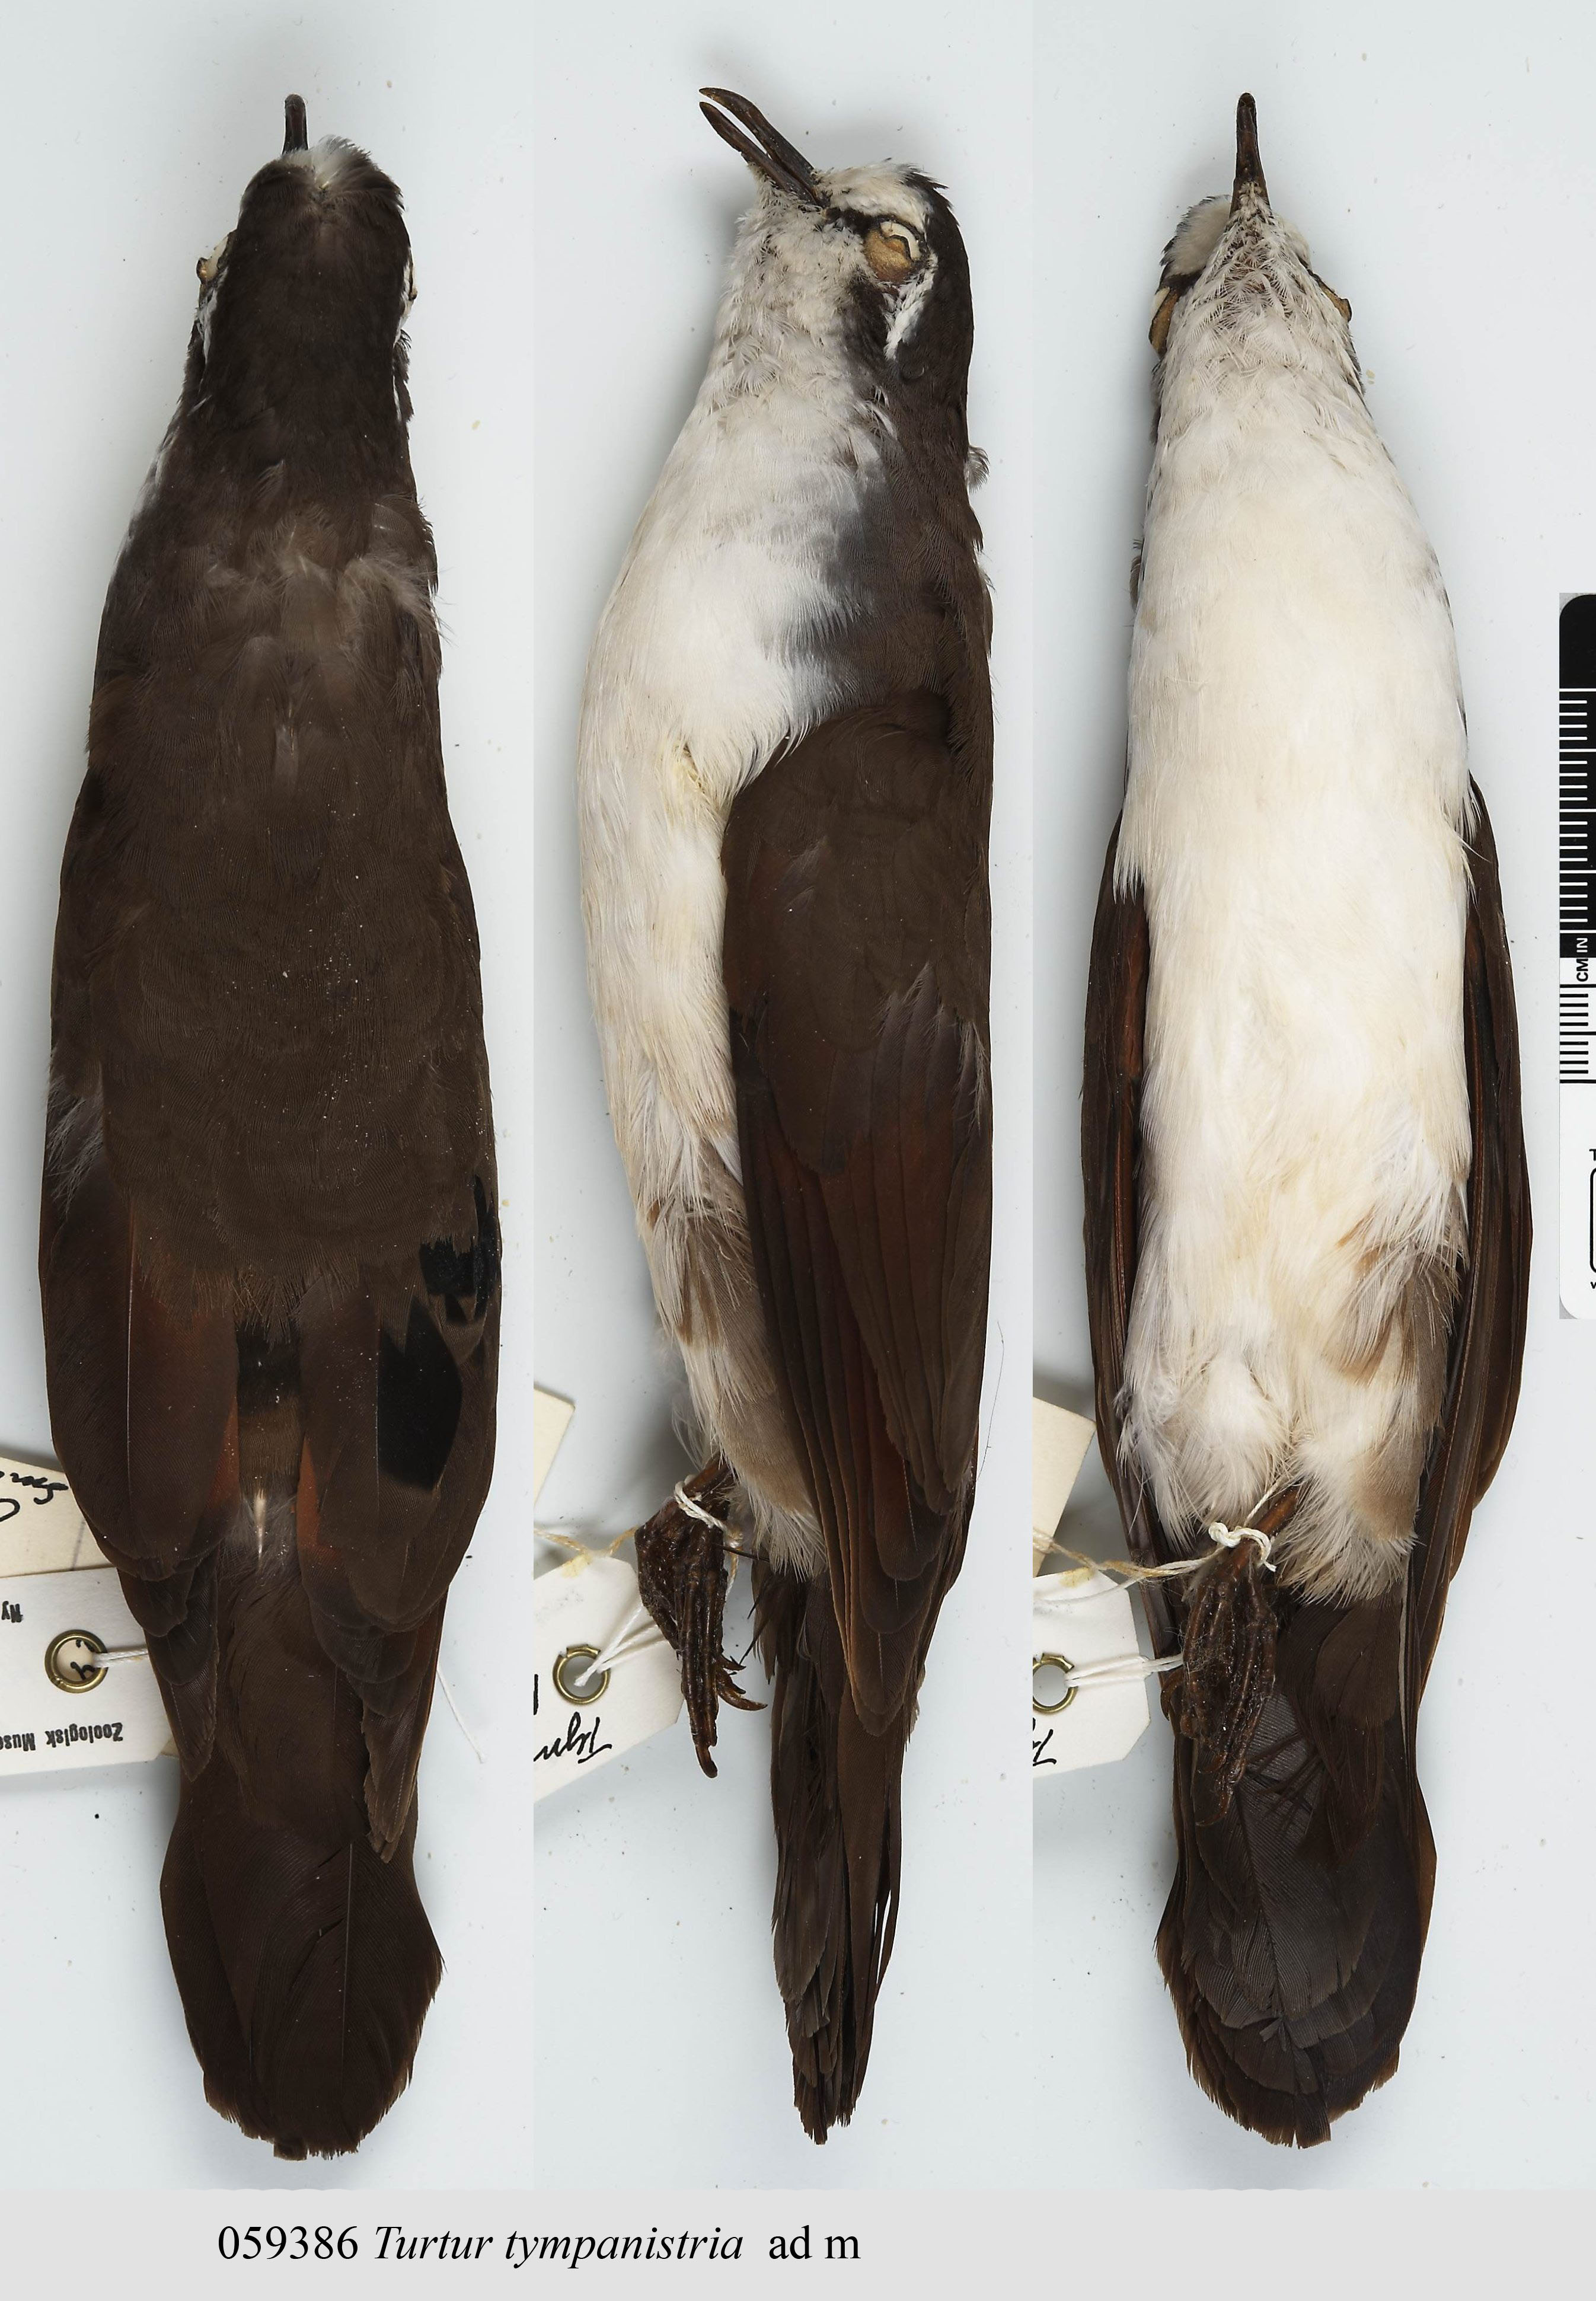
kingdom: Animalia
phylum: Chordata
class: Aves
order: Columbiformes
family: Columbidae
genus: Turtur
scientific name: Turtur tympanistria
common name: Tambourine dove
